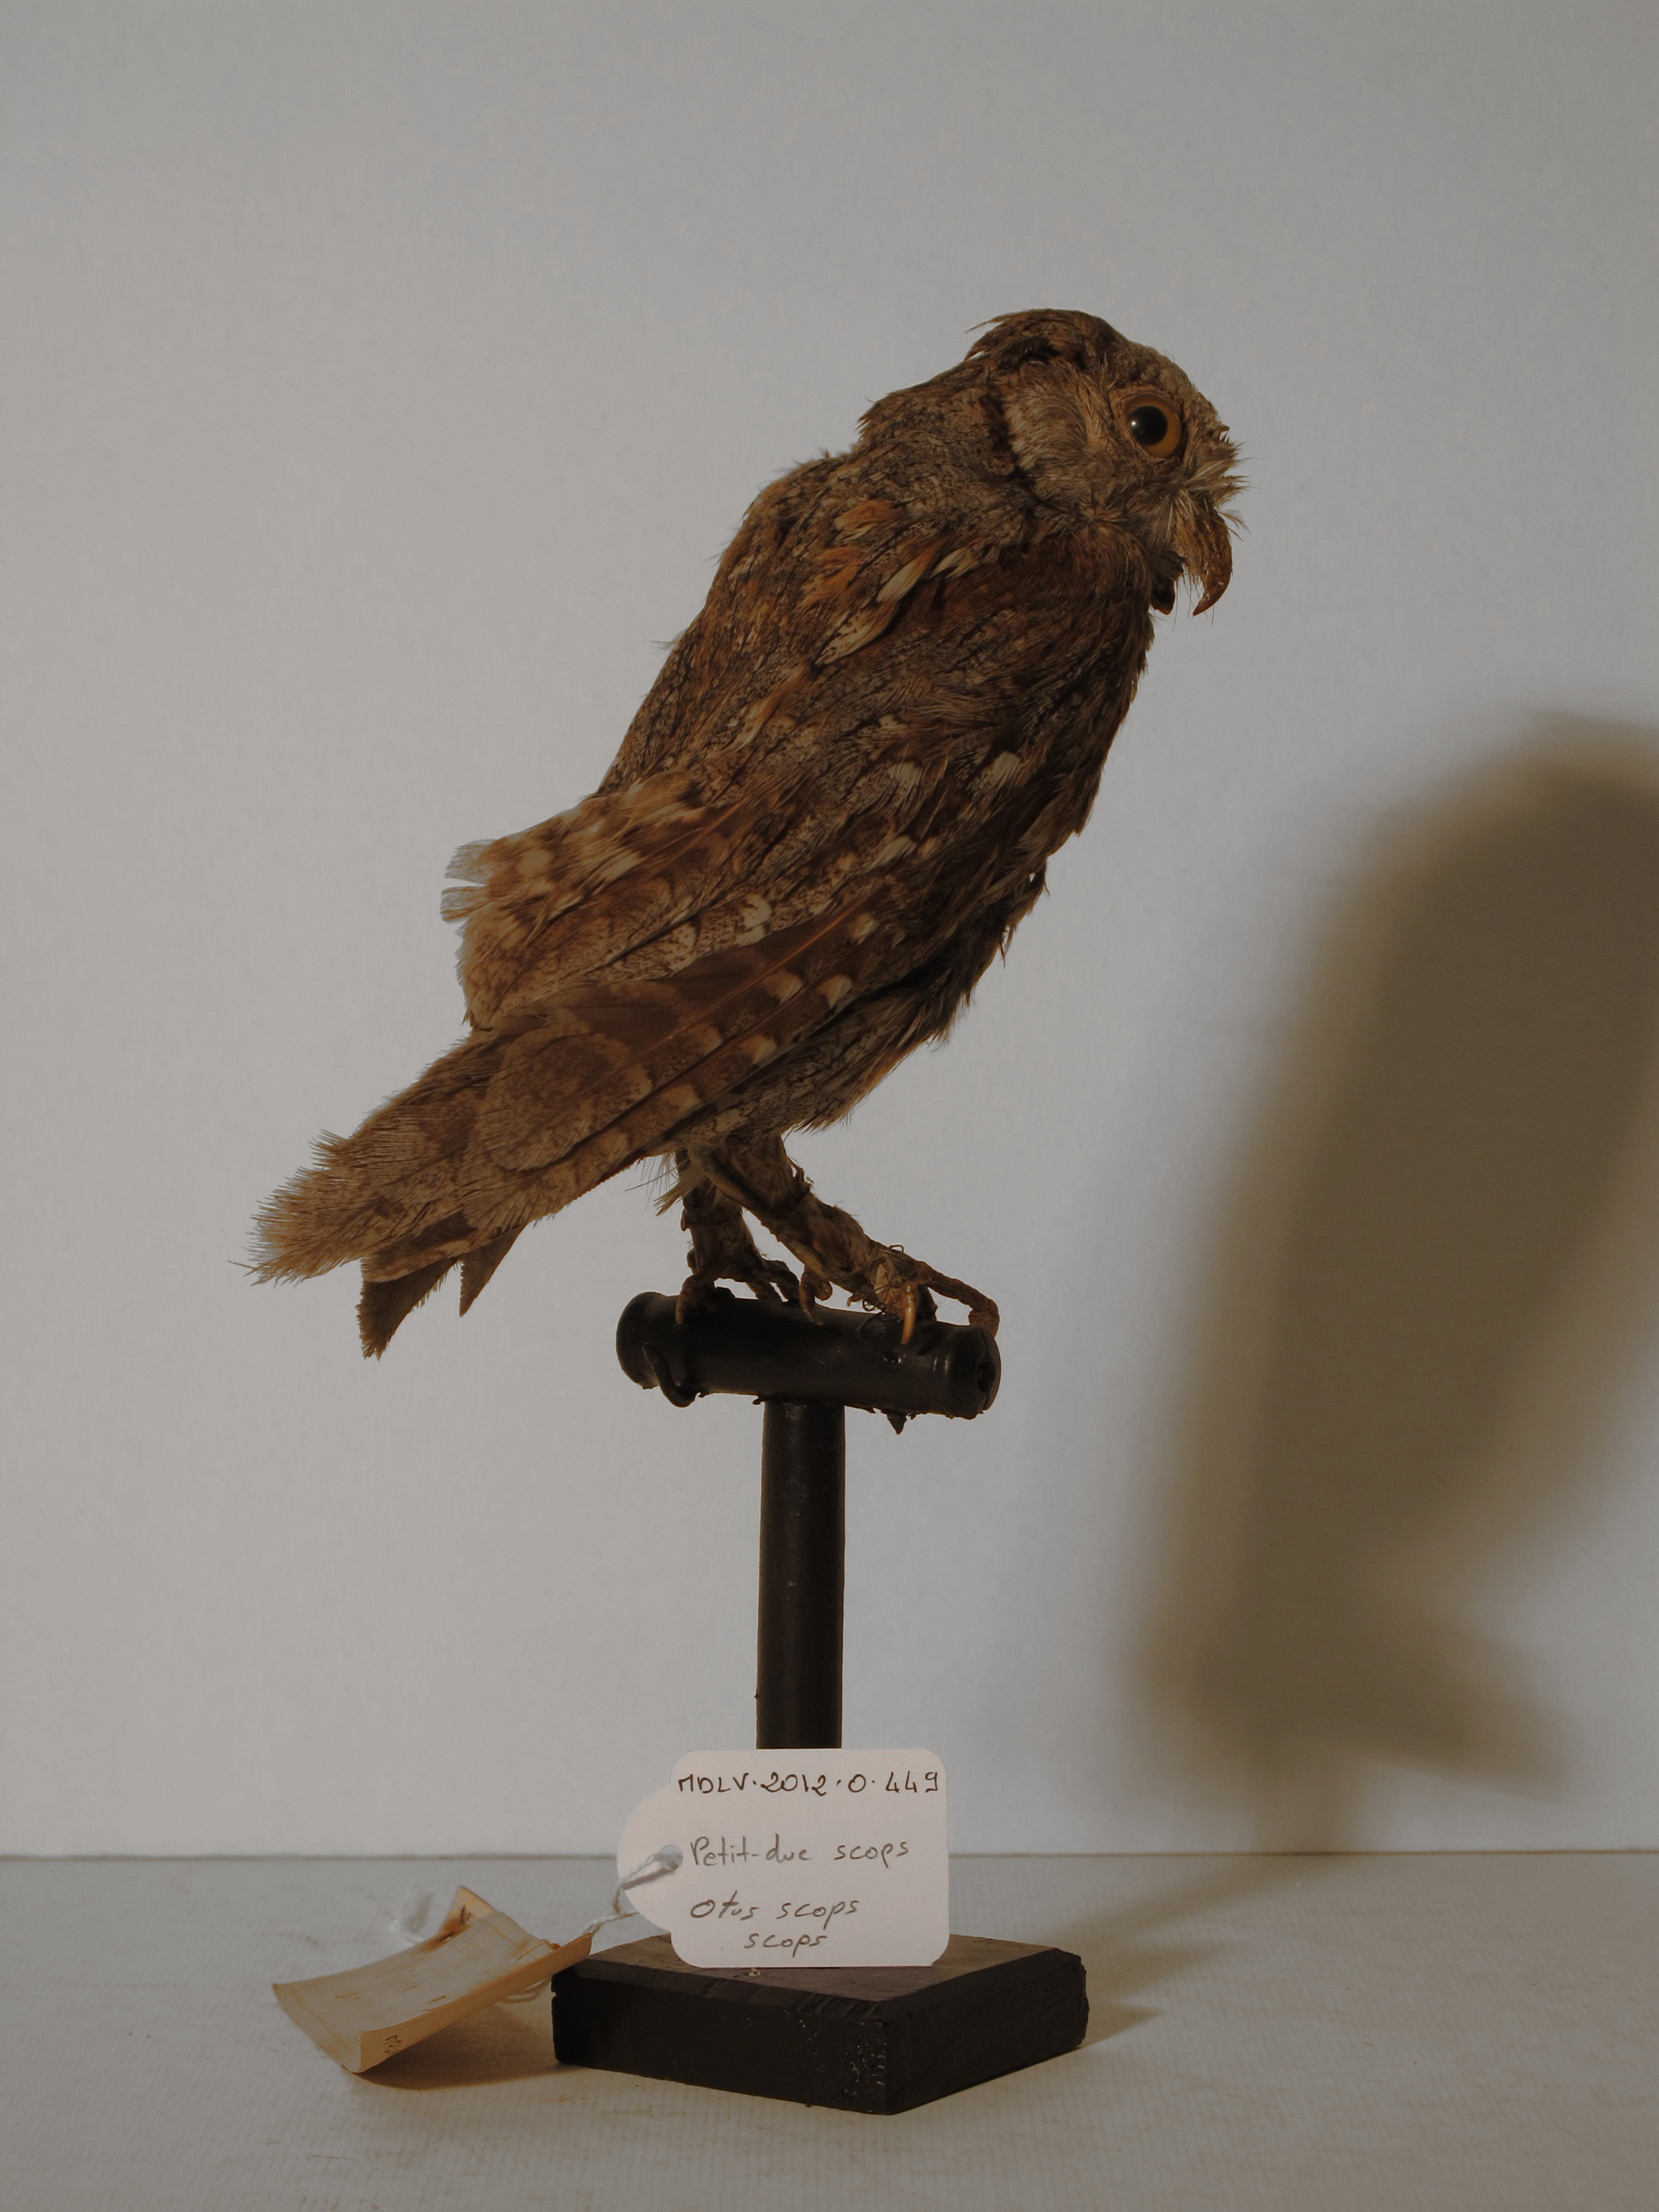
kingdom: Animalia
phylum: Chordata
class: Aves
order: Strigiformes
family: Strigidae
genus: Otus
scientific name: Otus scops
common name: Eurasian Scops-owl
